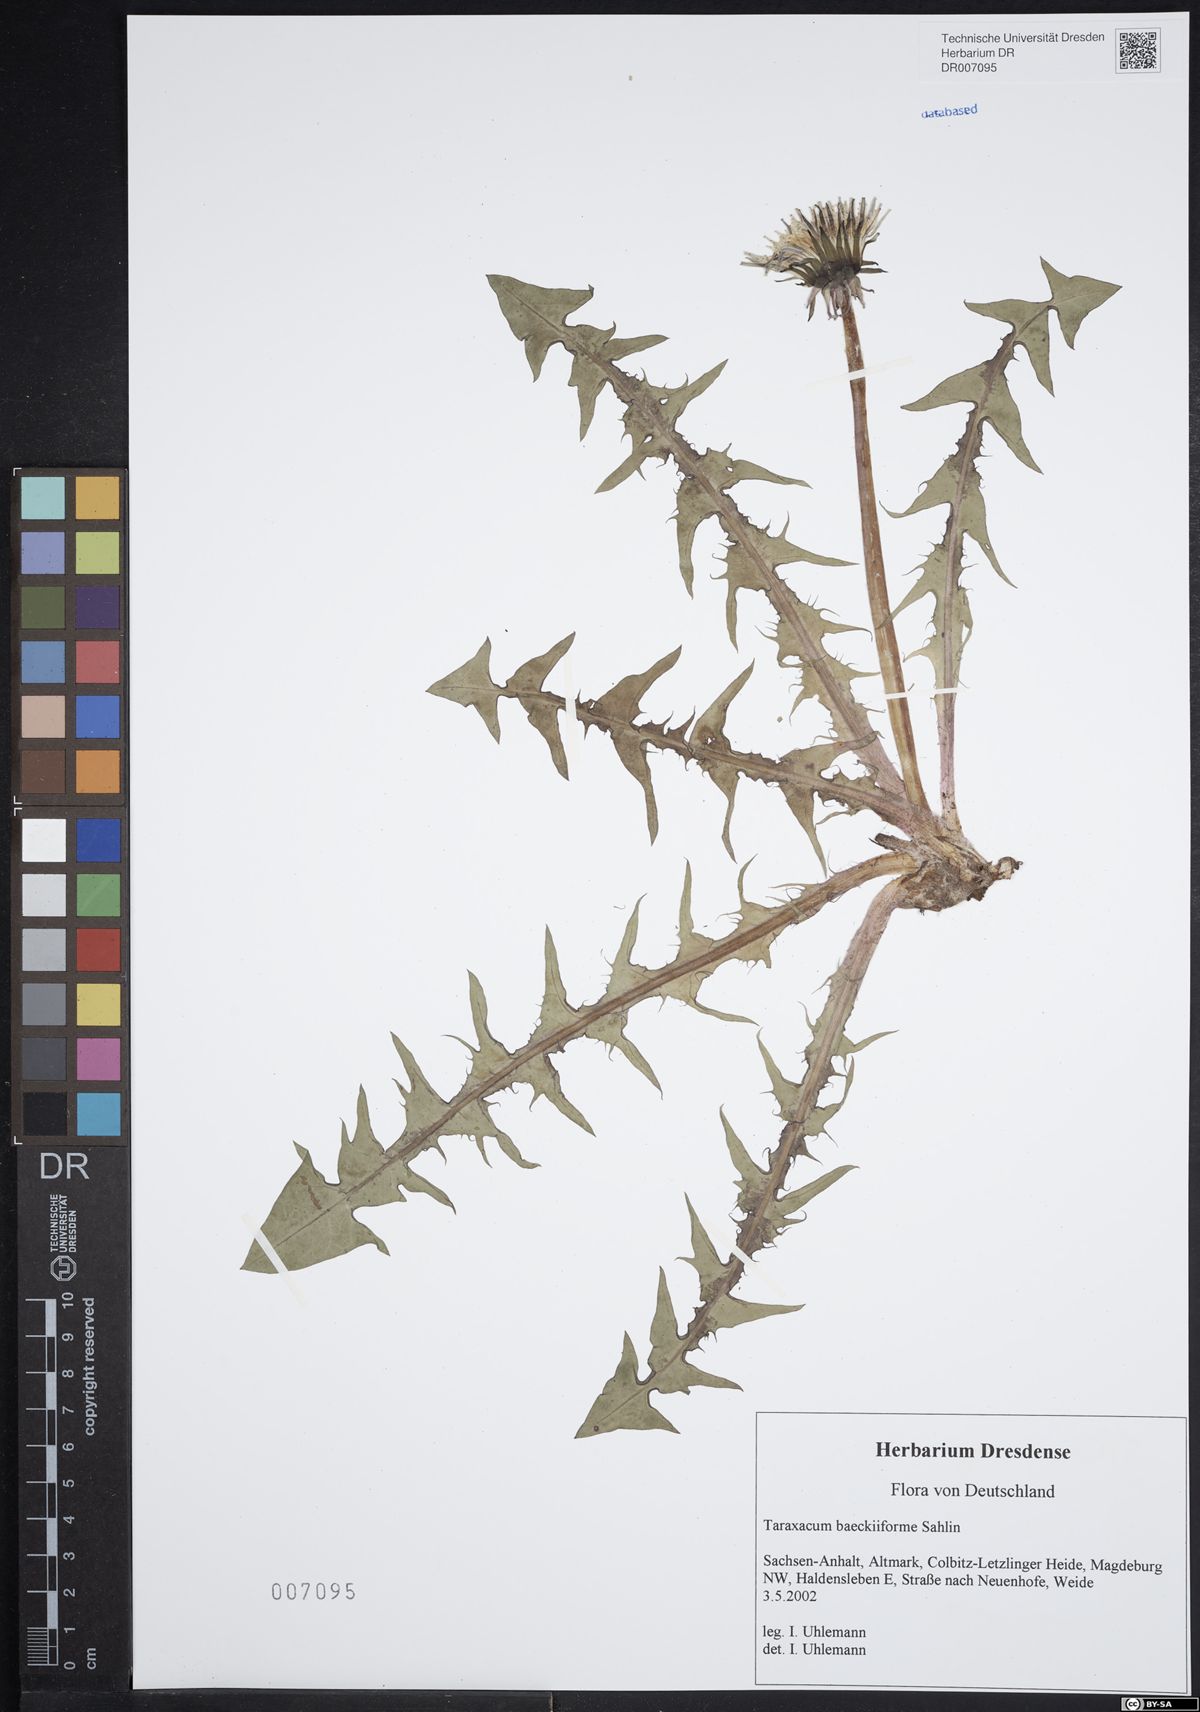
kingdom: Plantae
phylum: Tracheophyta
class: Magnoliopsida
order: Asterales
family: Asteraceae
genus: Taraxacum
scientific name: Taraxacum baeckiiforme
